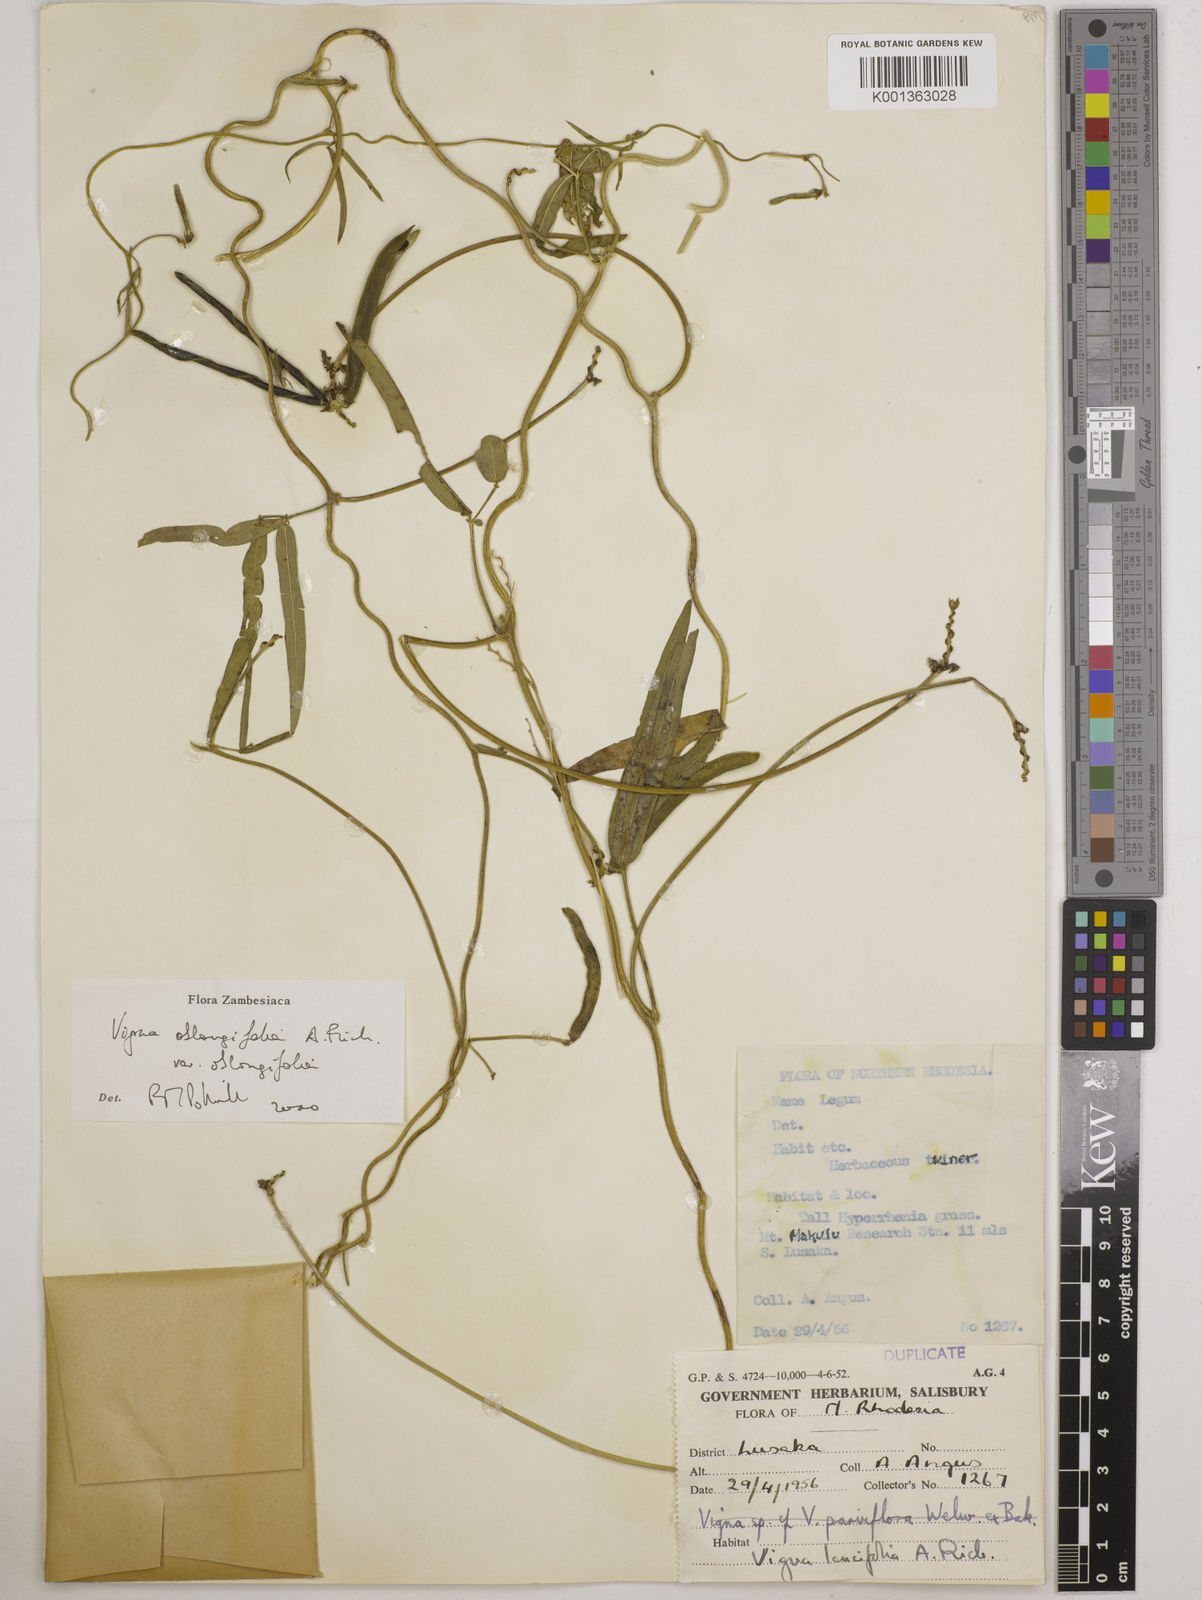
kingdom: Plantae
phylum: Tracheophyta
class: Magnoliopsida
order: Fabales
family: Fabaceae
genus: Vigna
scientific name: Vigna oblongifolia
